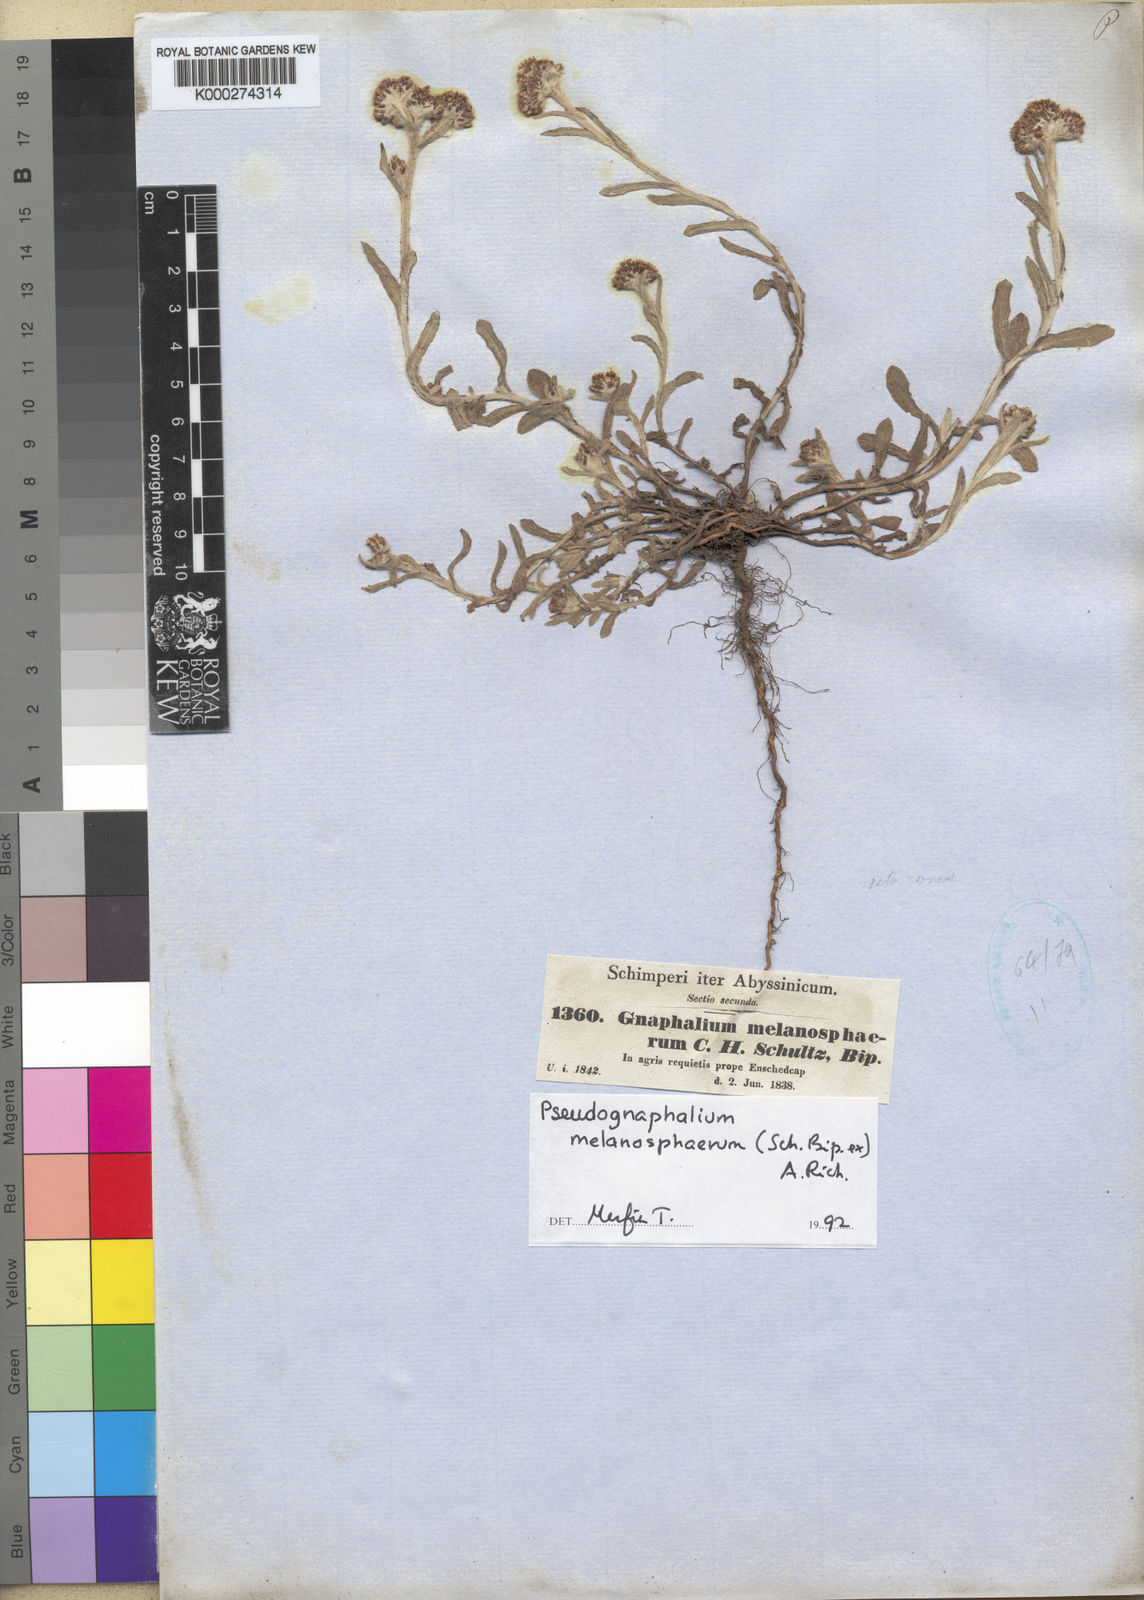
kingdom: Plantae
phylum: Tracheophyta
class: Magnoliopsida
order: Asterales
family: Asteraceae
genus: Pseudognaphalium
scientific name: Pseudognaphalium melanosphaerum
